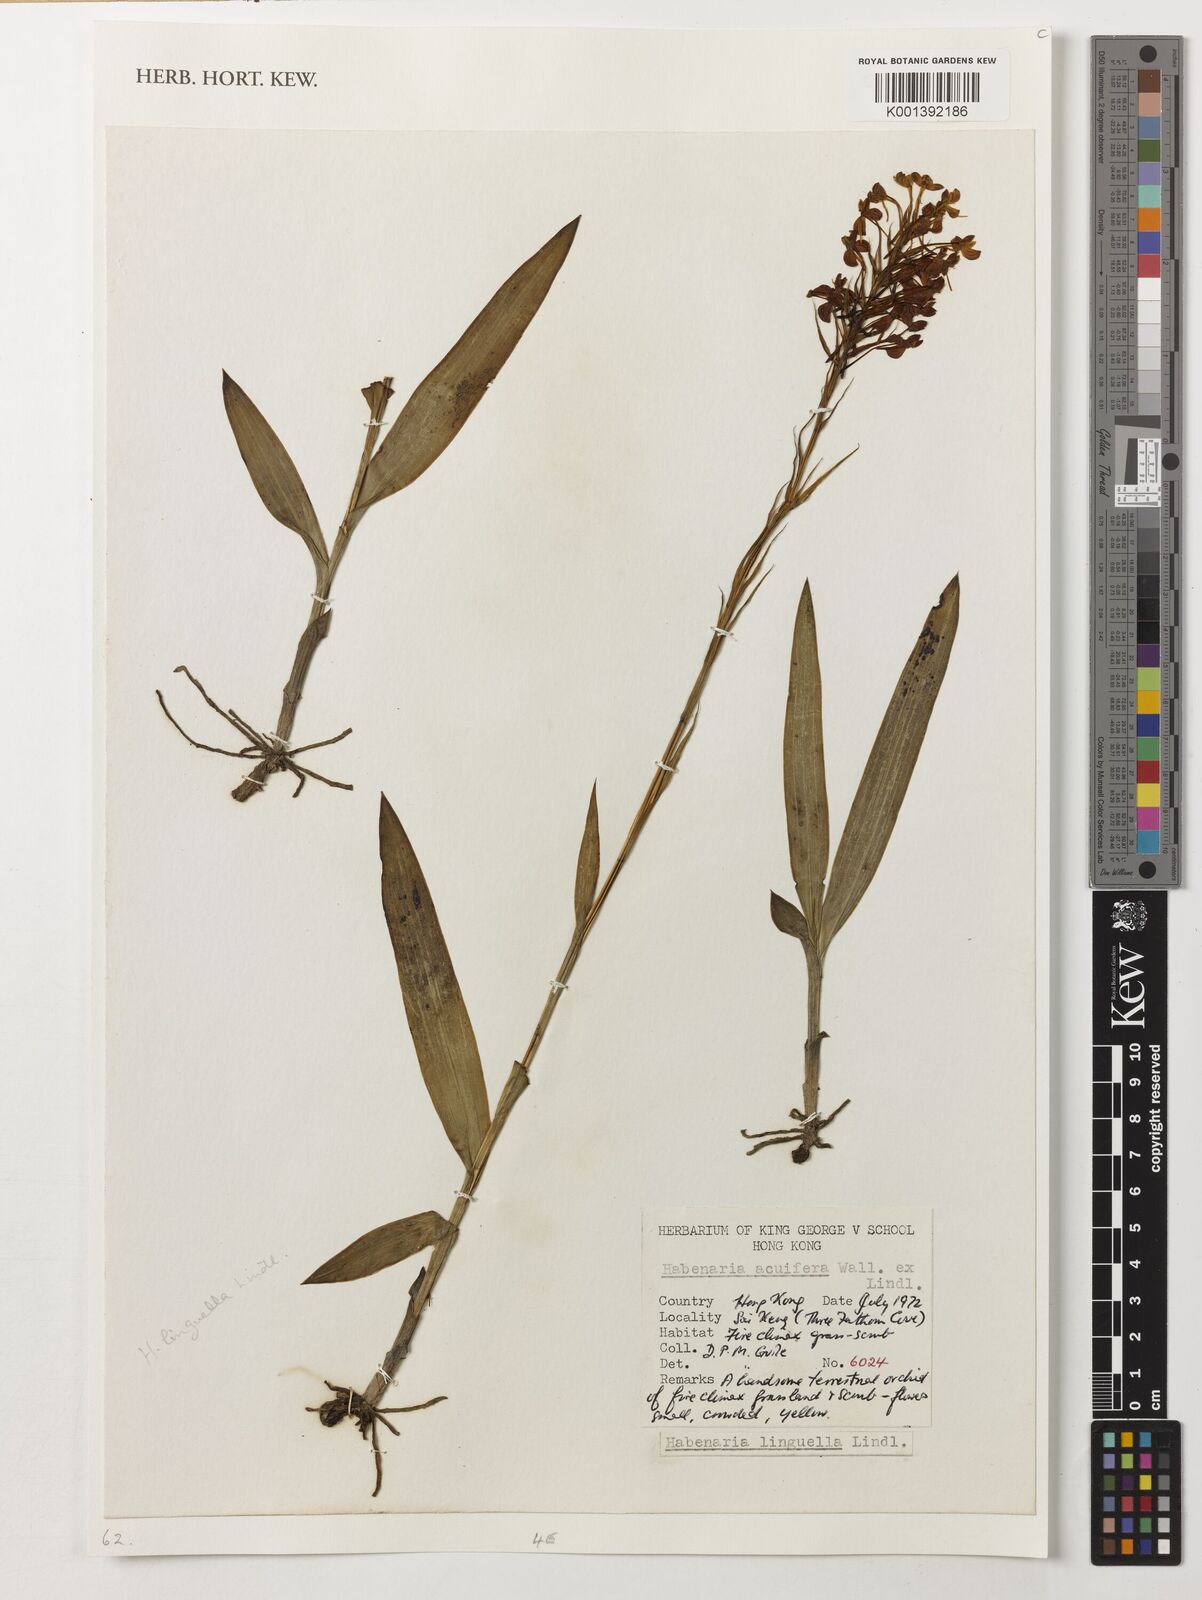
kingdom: Plantae
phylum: Tracheophyta
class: Liliopsida
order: Asparagales
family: Orchidaceae
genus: Habenaria
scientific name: Habenaria linguella
